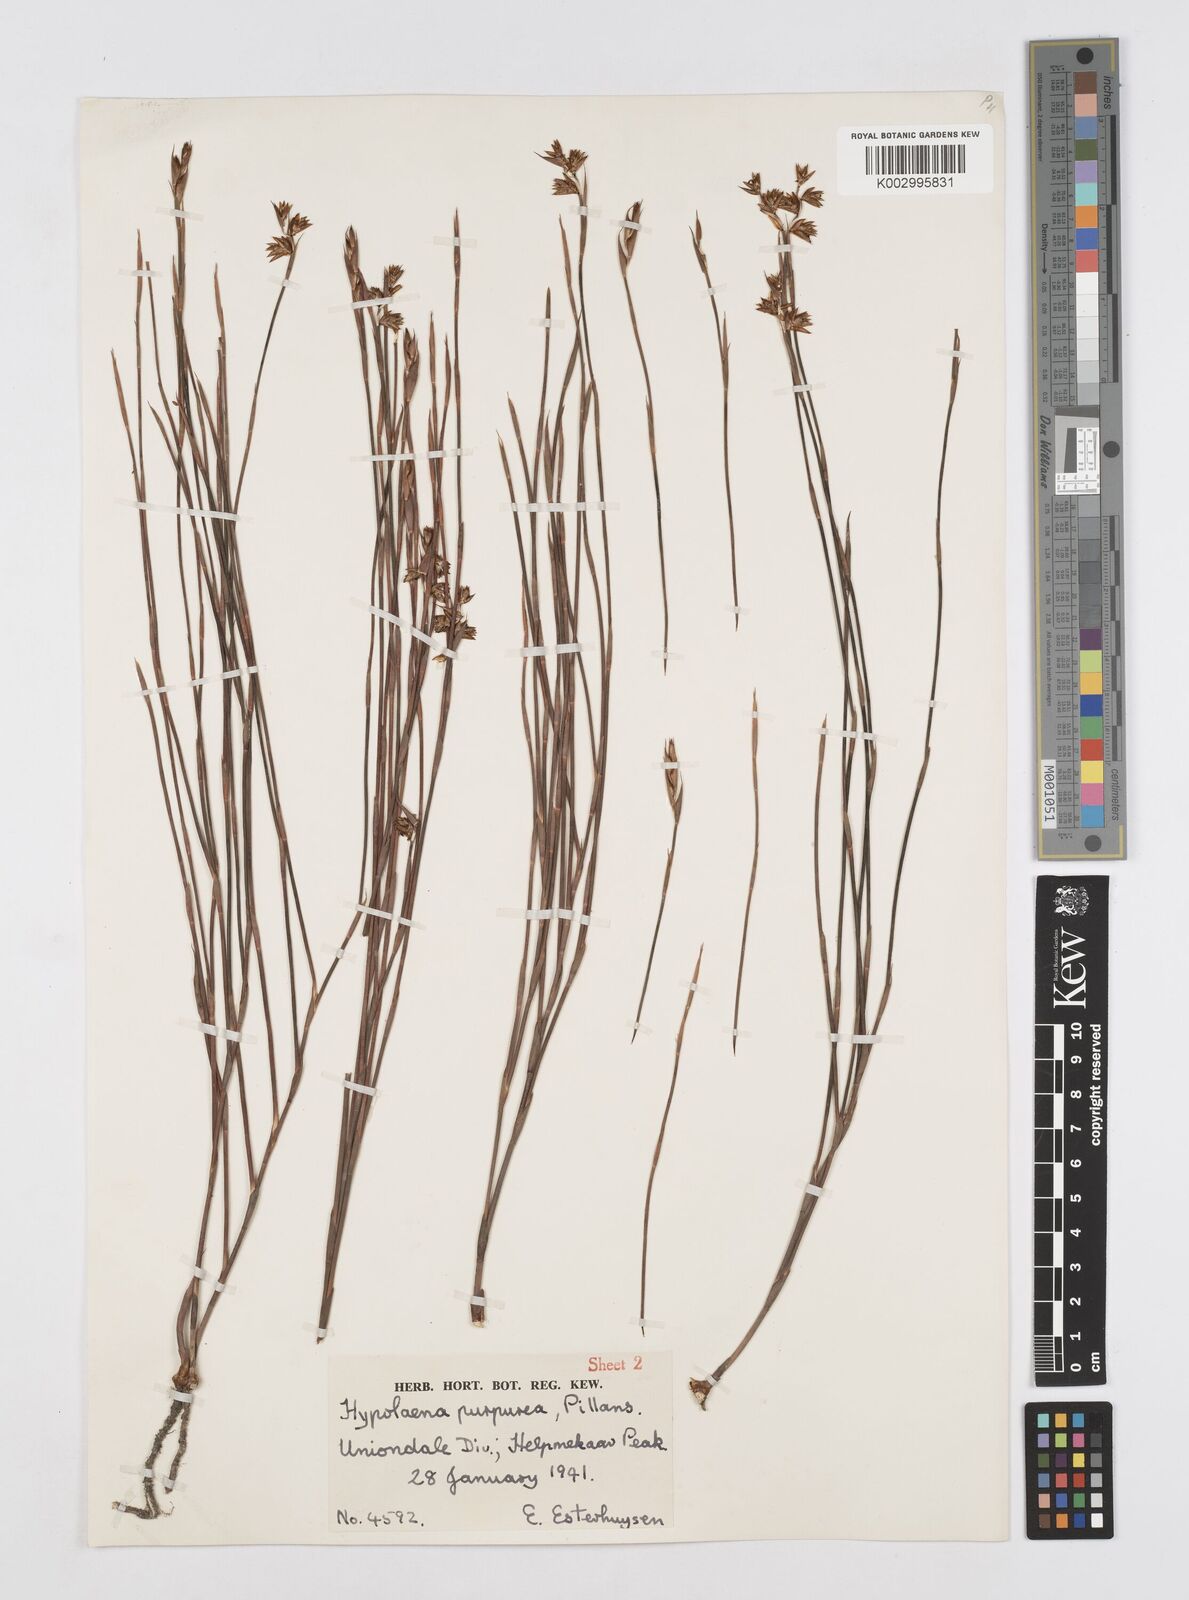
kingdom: Plantae
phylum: Tracheophyta
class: Liliopsida
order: Poales
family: Restionaceae
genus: Mastersiella
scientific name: Mastersiella spathulata
